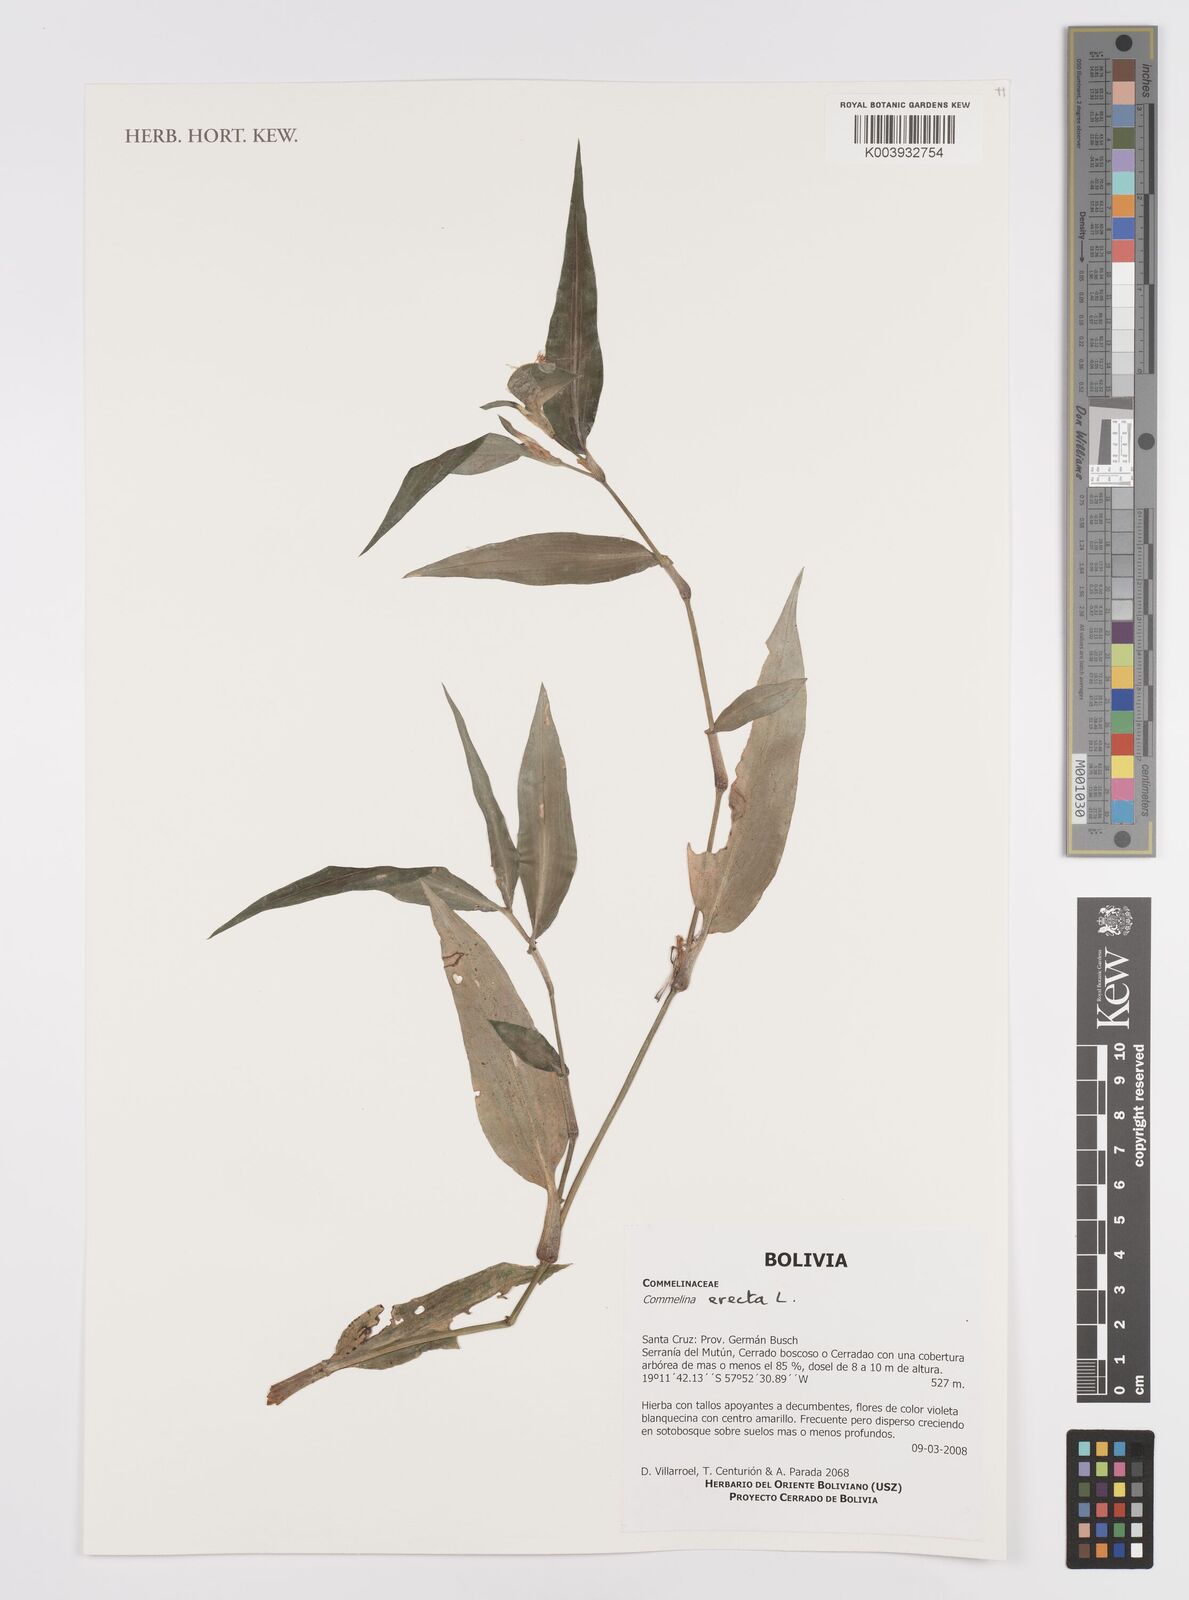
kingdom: Plantae
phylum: Tracheophyta
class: Liliopsida
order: Commelinales
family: Commelinaceae
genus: Commelina
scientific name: Commelina erecta
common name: Blousel blommetjie
